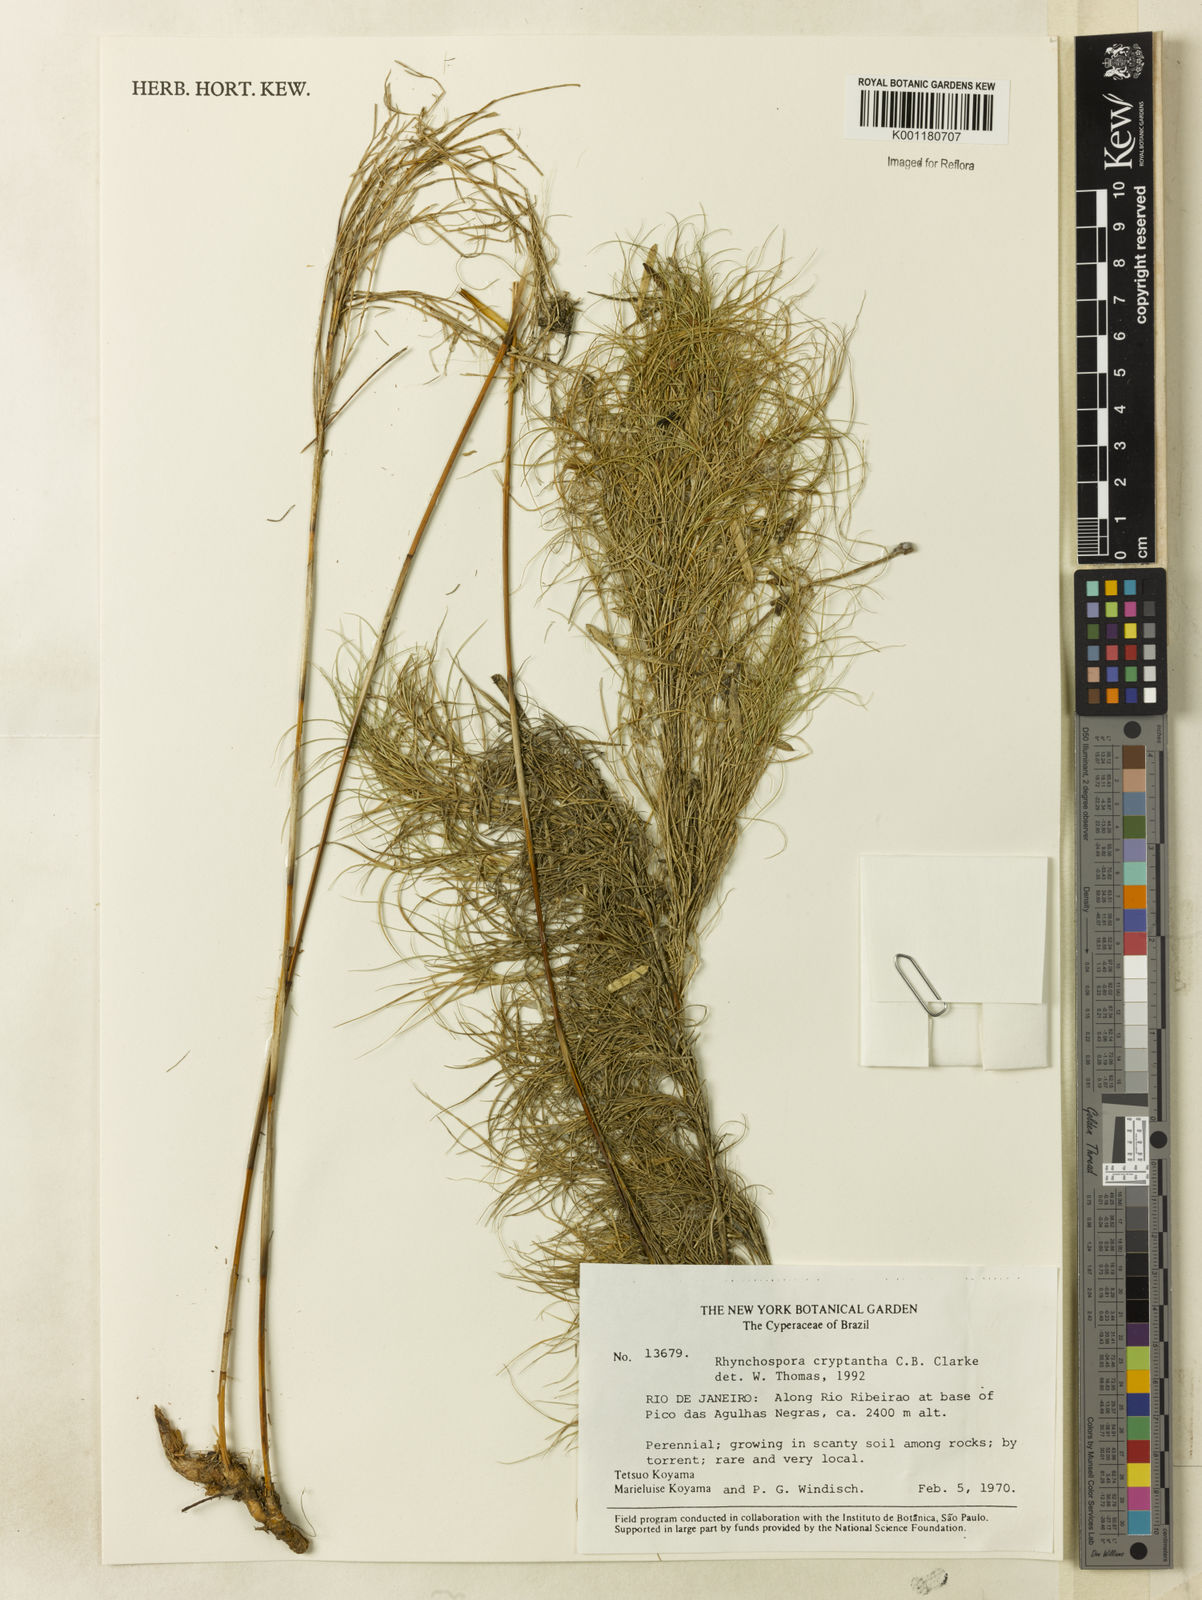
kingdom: Plantae
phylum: Tracheophyta
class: Liliopsida
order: Poales
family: Cyperaceae
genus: Rhynchospora
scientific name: Rhynchospora biflora
